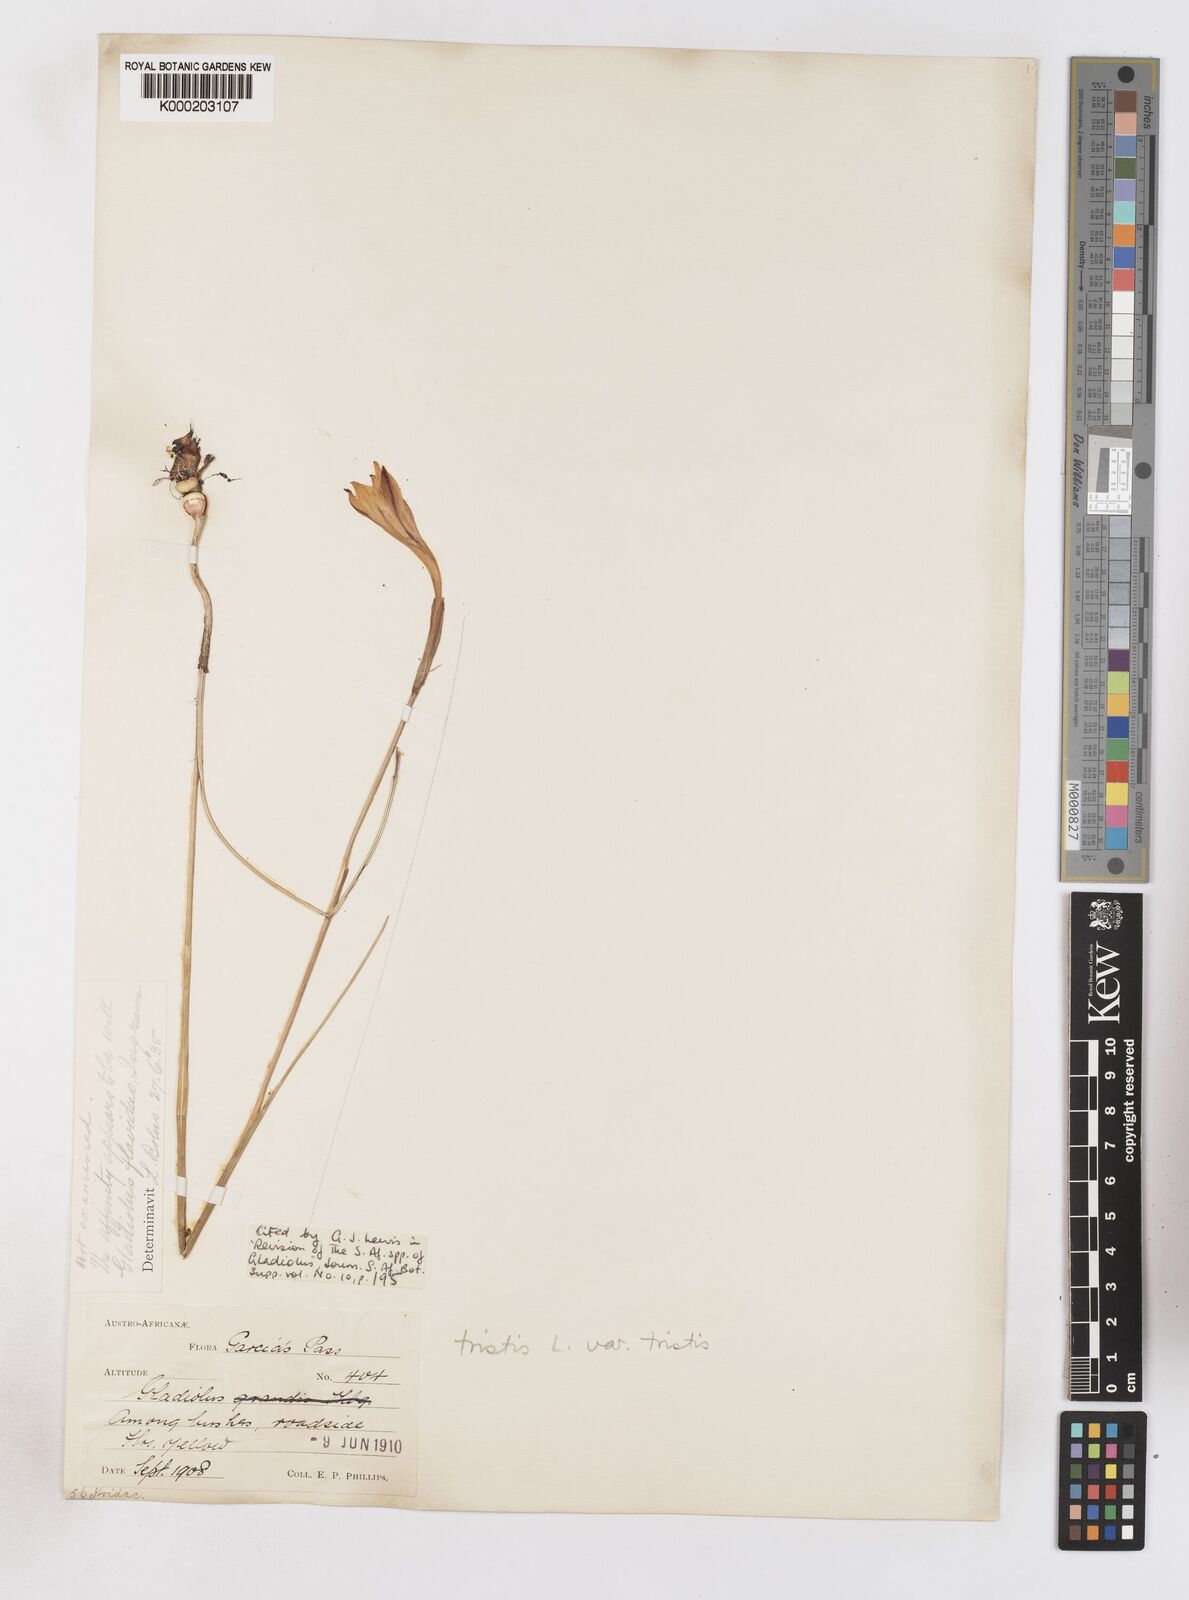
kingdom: Plantae
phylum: Tracheophyta
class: Liliopsida
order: Asparagales
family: Iridaceae
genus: Gladiolus
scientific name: Gladiolus tristis
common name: Ever-flowering gladiolus
